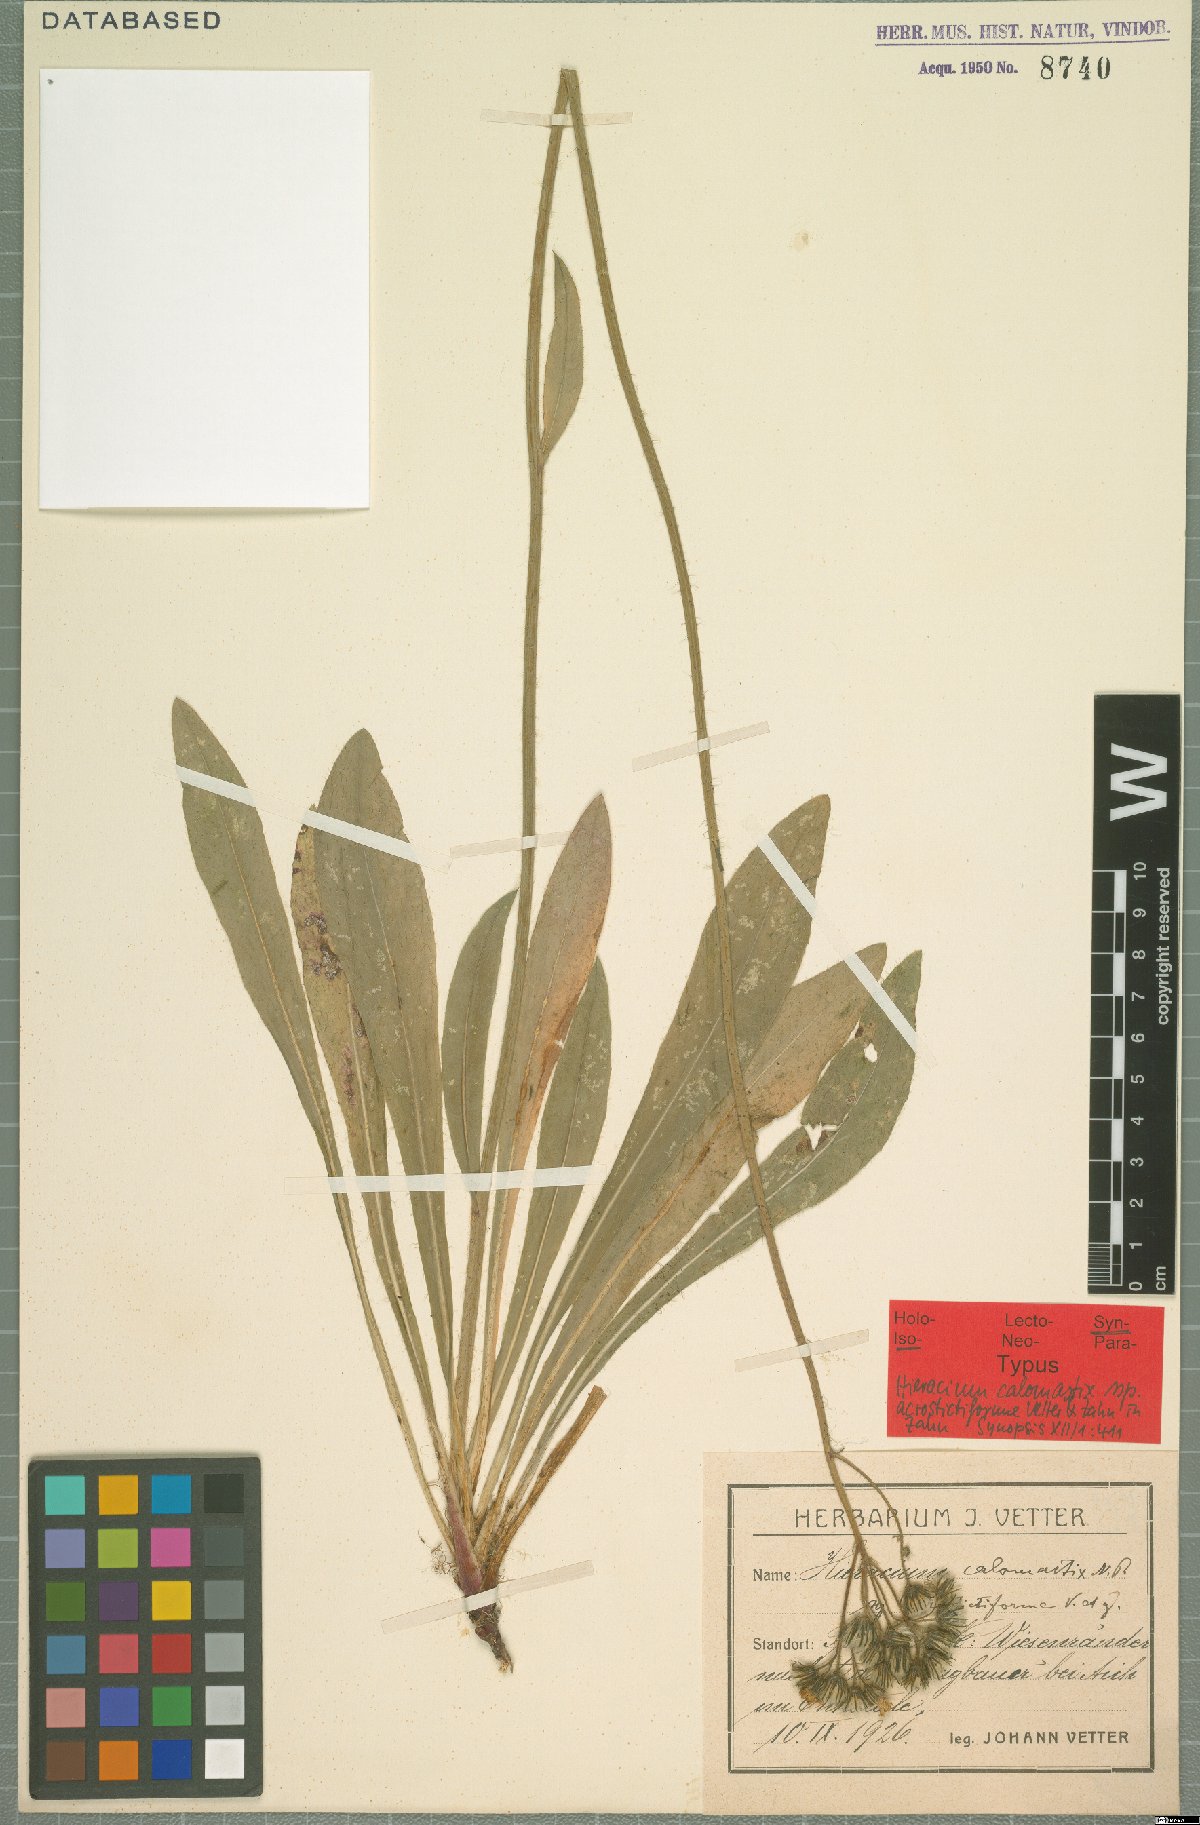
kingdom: Plantae
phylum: Tracheophyta
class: Magnoliopsida
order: Asterales
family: Asteraceae
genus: Pilosella
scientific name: Pilosella calomastix
